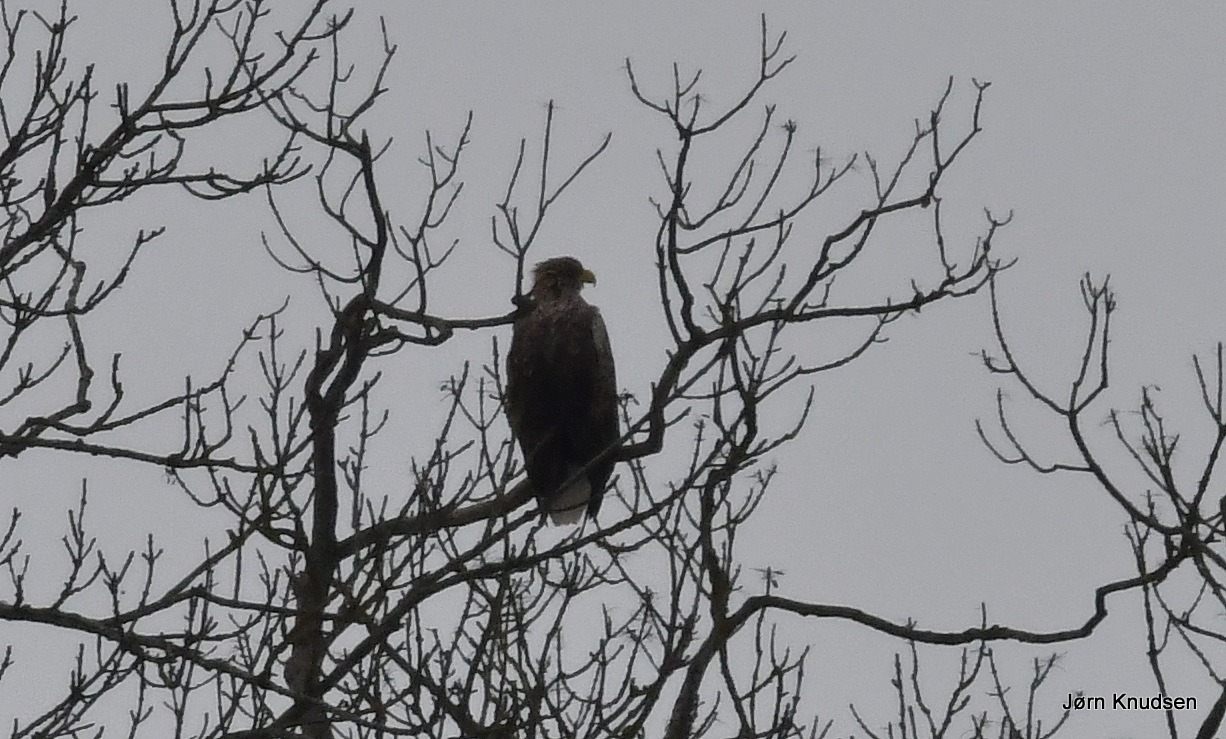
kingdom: Animalia
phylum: Chordata
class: Aves
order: Accipitriformes
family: Accipitridae
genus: Haliaeetus
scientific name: Haliaeetus albicilla
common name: Havørn
